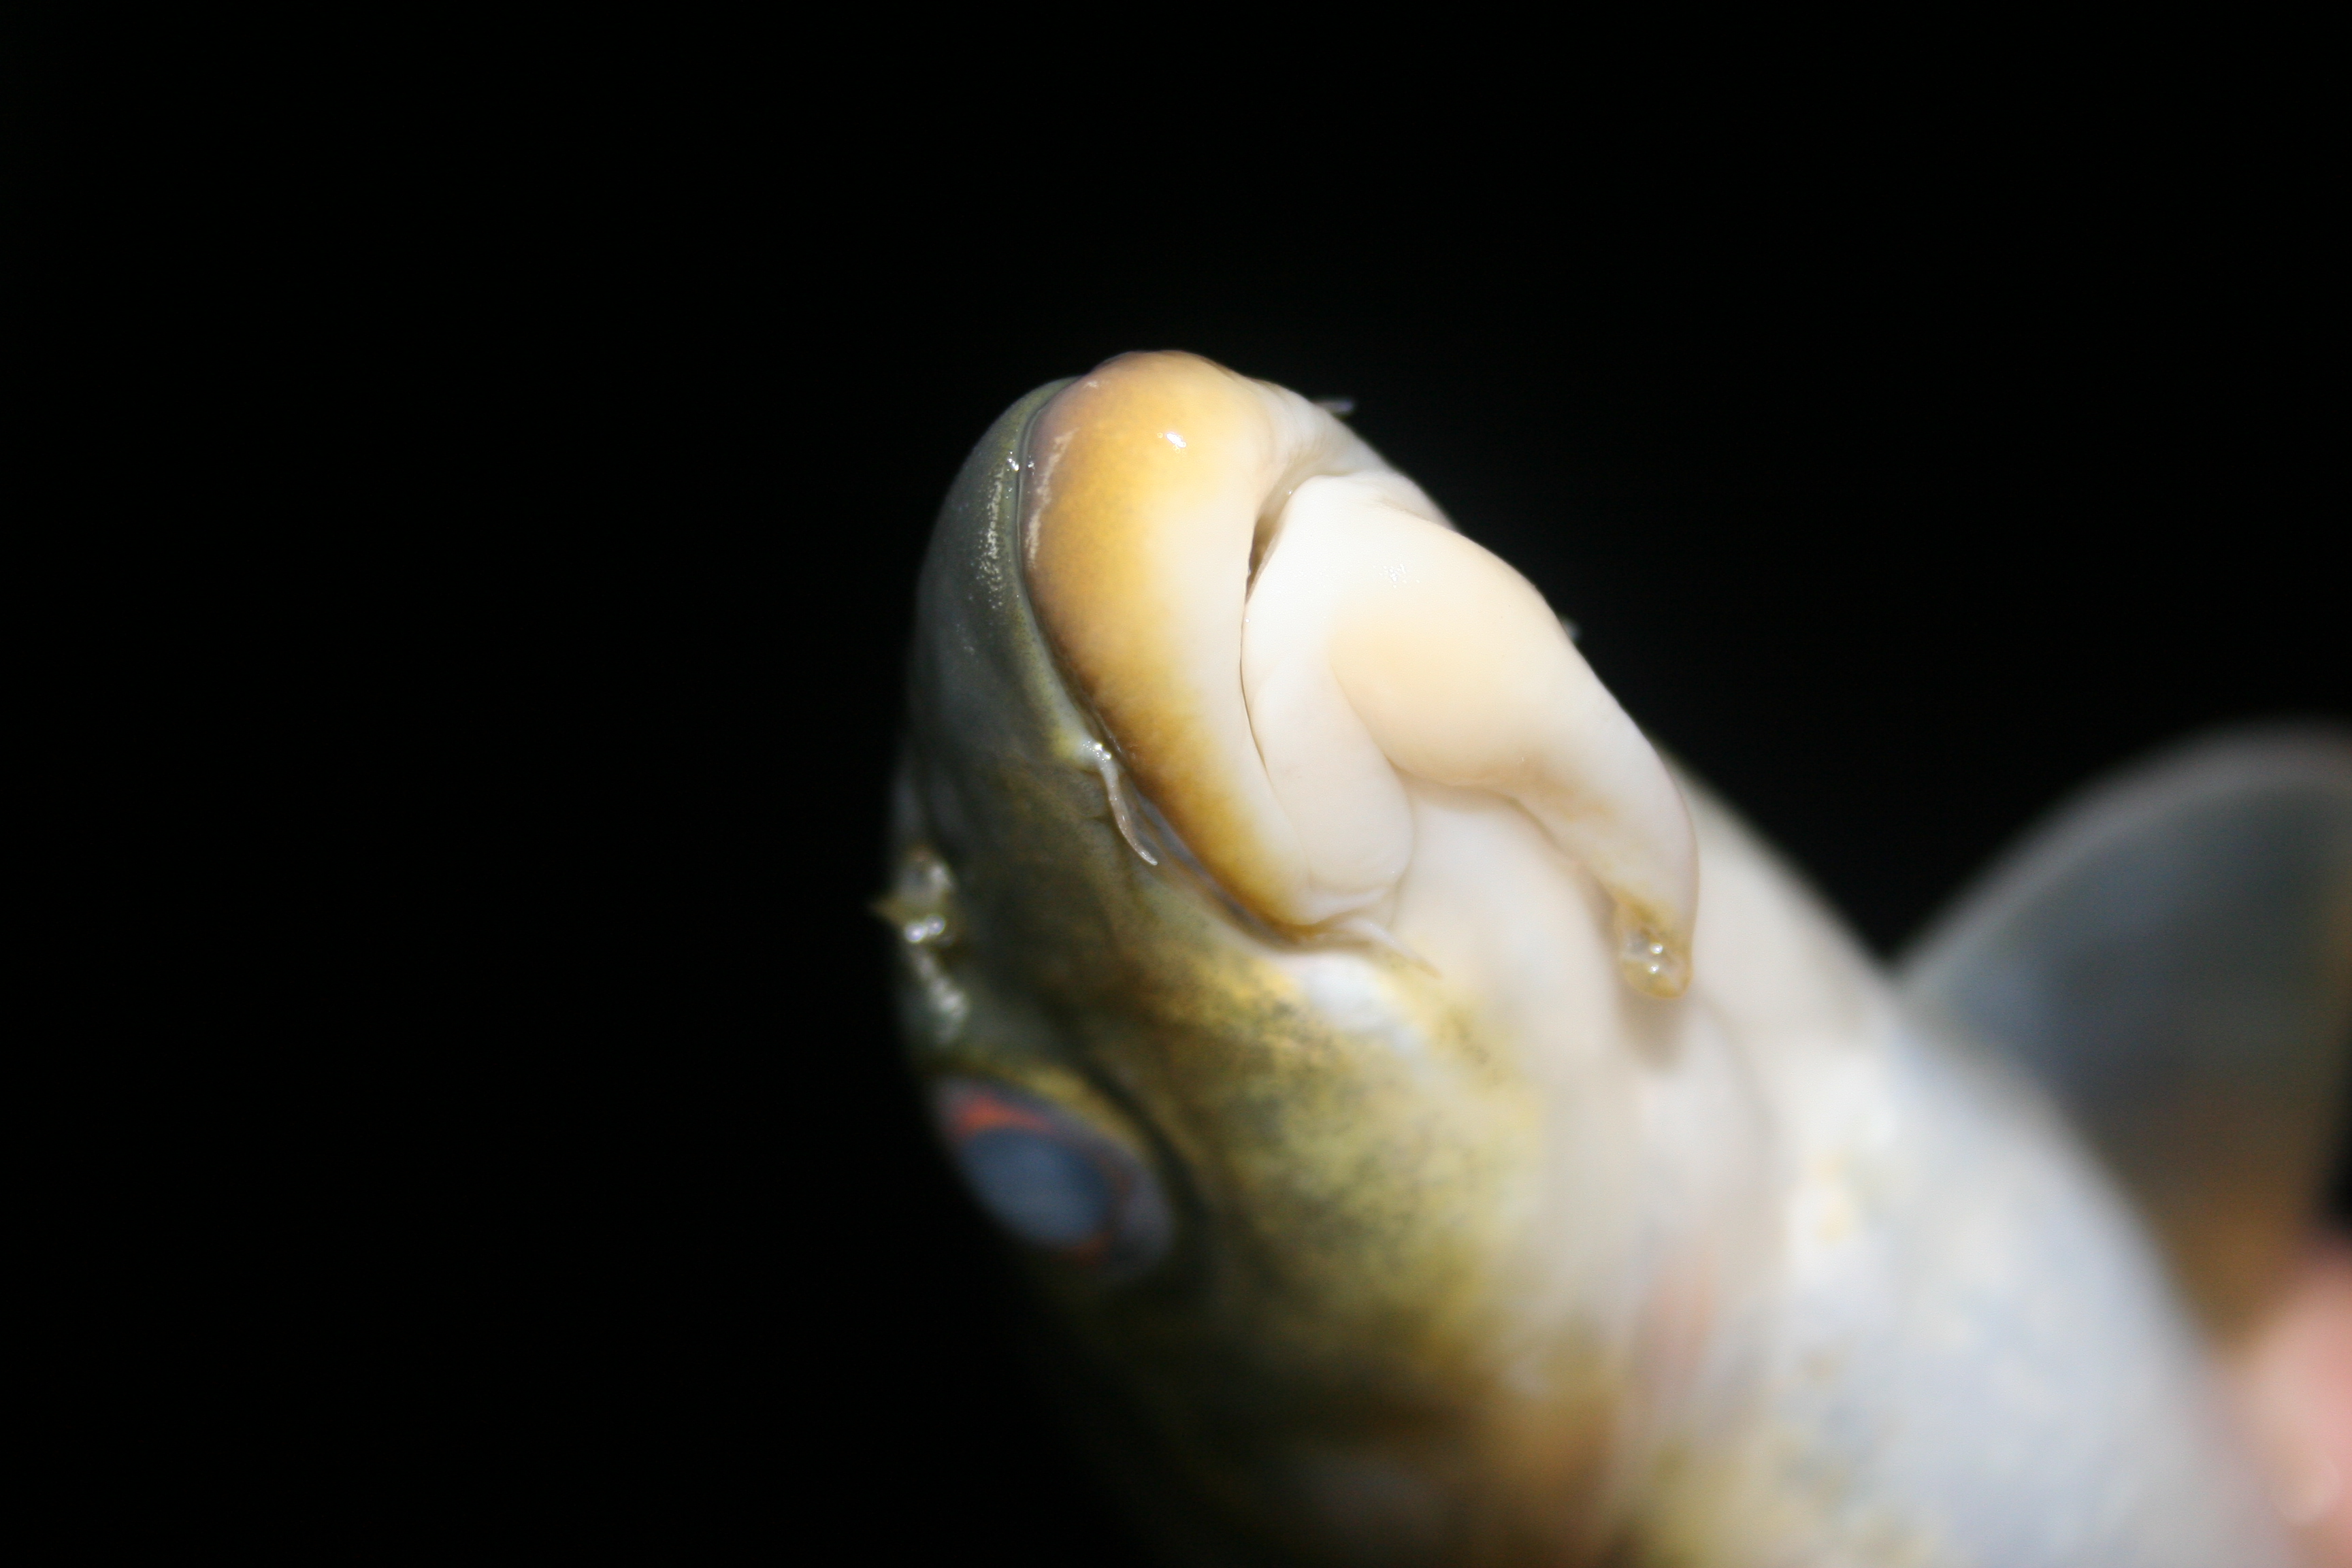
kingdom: Animalia
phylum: Chordata
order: Cypriniformes
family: Cyprinidae
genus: Labeobarbus
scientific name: Labeobarbus
